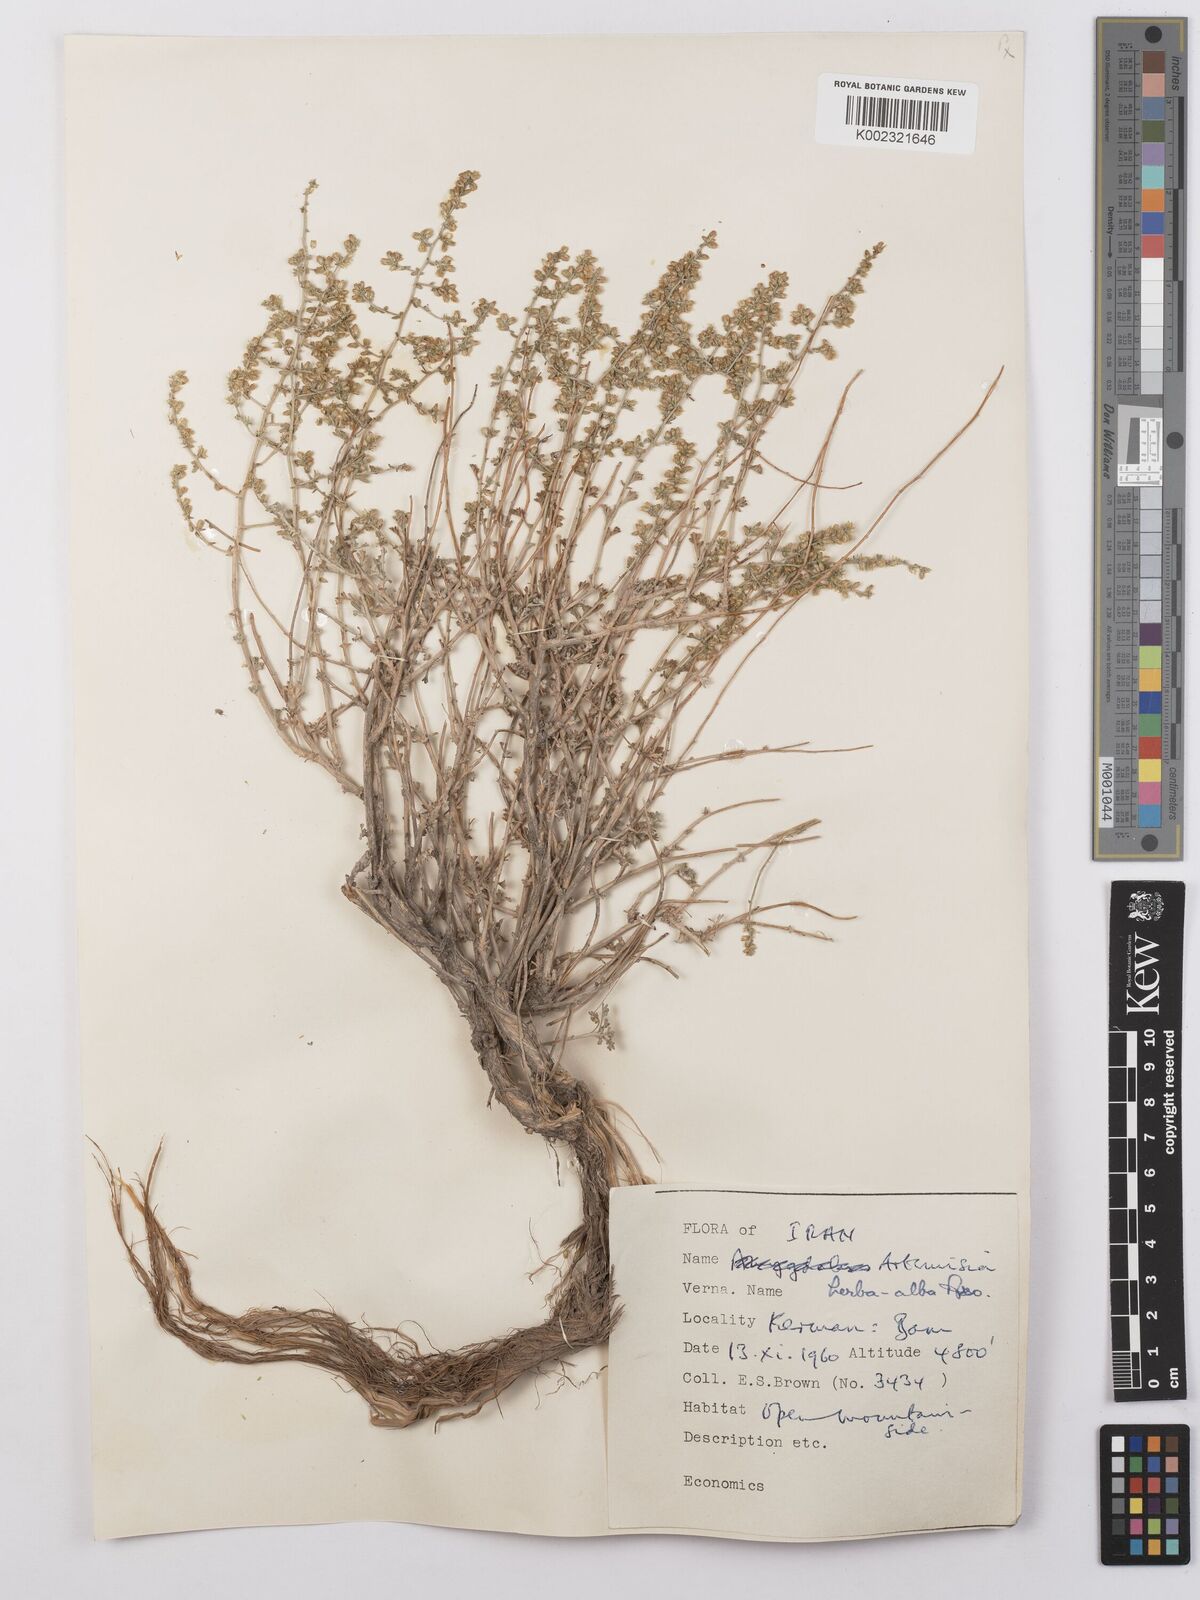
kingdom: Plantae
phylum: Tracheophyta
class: Magnoliopsida
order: Asterales
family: Asteraceae
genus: Artemisia
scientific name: Artemisia herba-alba
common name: White wormwood
